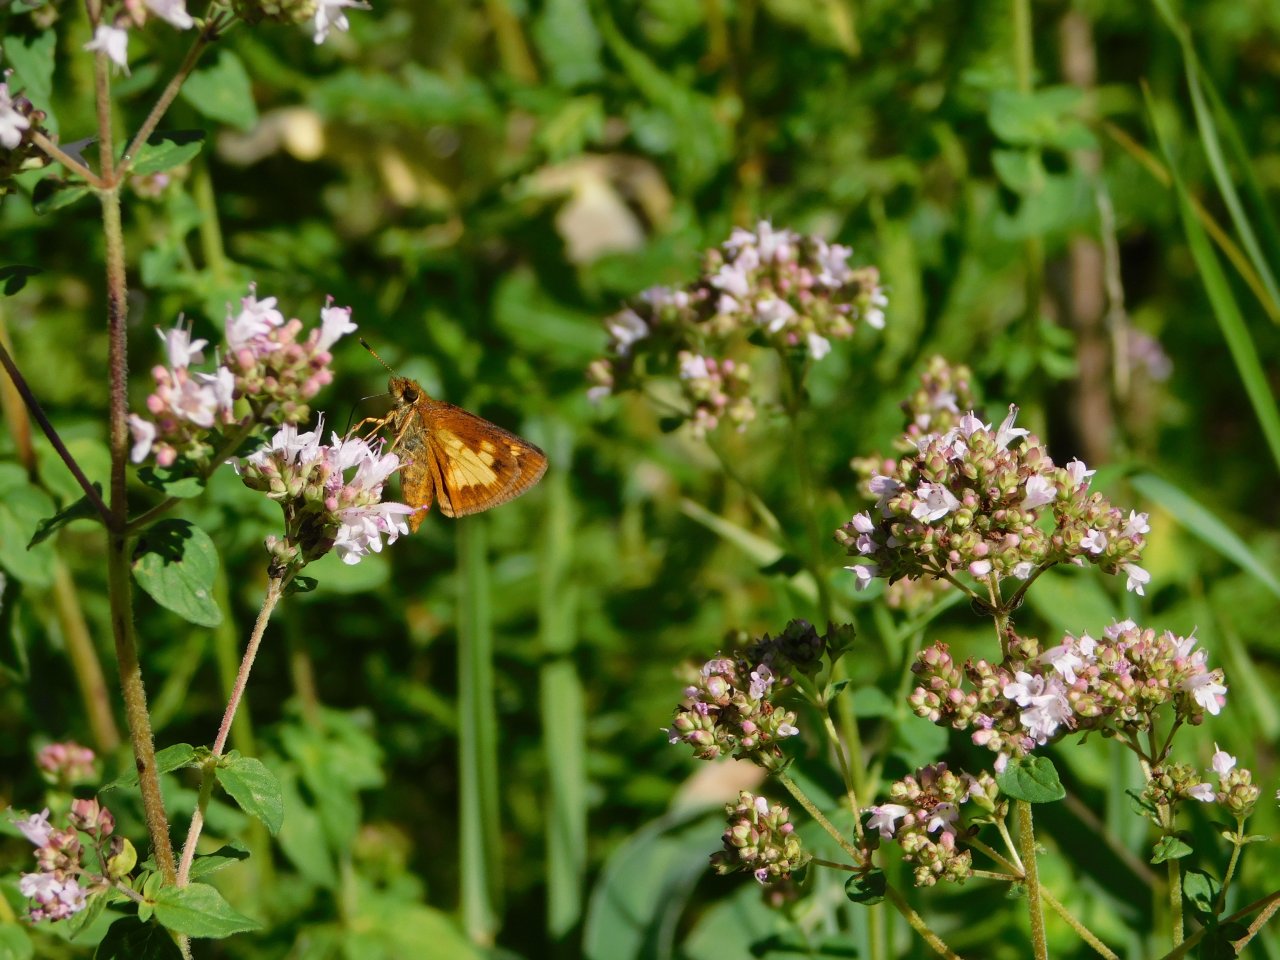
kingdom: Animalia
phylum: Arthropoda
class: Insecta
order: Lepidoptera
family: Hesperiidae
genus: Polites
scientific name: Polites coras
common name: Peck's Skipper
